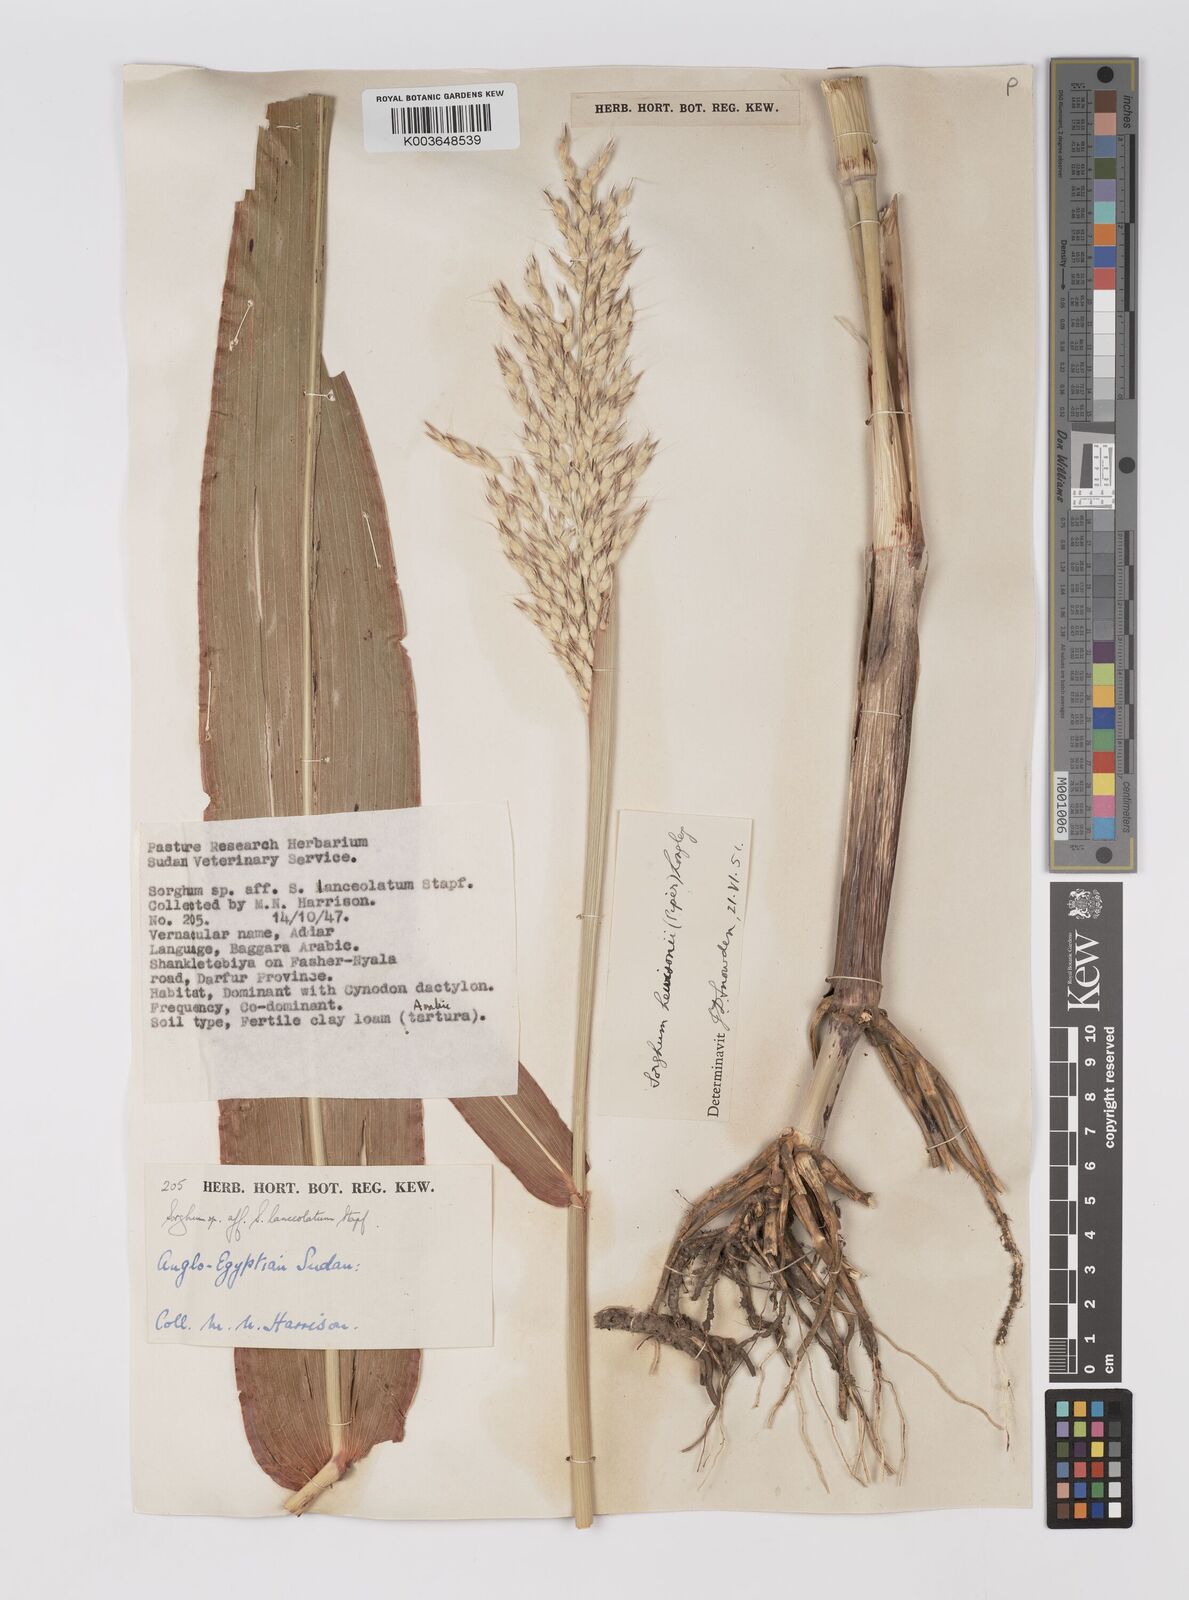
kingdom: Plantae
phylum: Tracheophyta
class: Liliopsida
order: Poales
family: Poaceae
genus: Sorghum
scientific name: Sorghum drummondii
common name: Sudangrass
